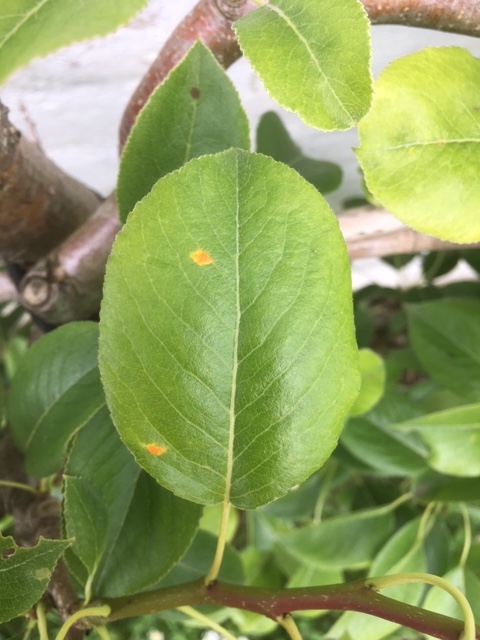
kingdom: Fungi
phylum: Basidiomycota
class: Pucciniomycetes
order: Pucciniales
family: Gymnosporangiaceae
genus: Gymnosporangium
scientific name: Gymnosporangium sabinae
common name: pæregitter-bævrerust
